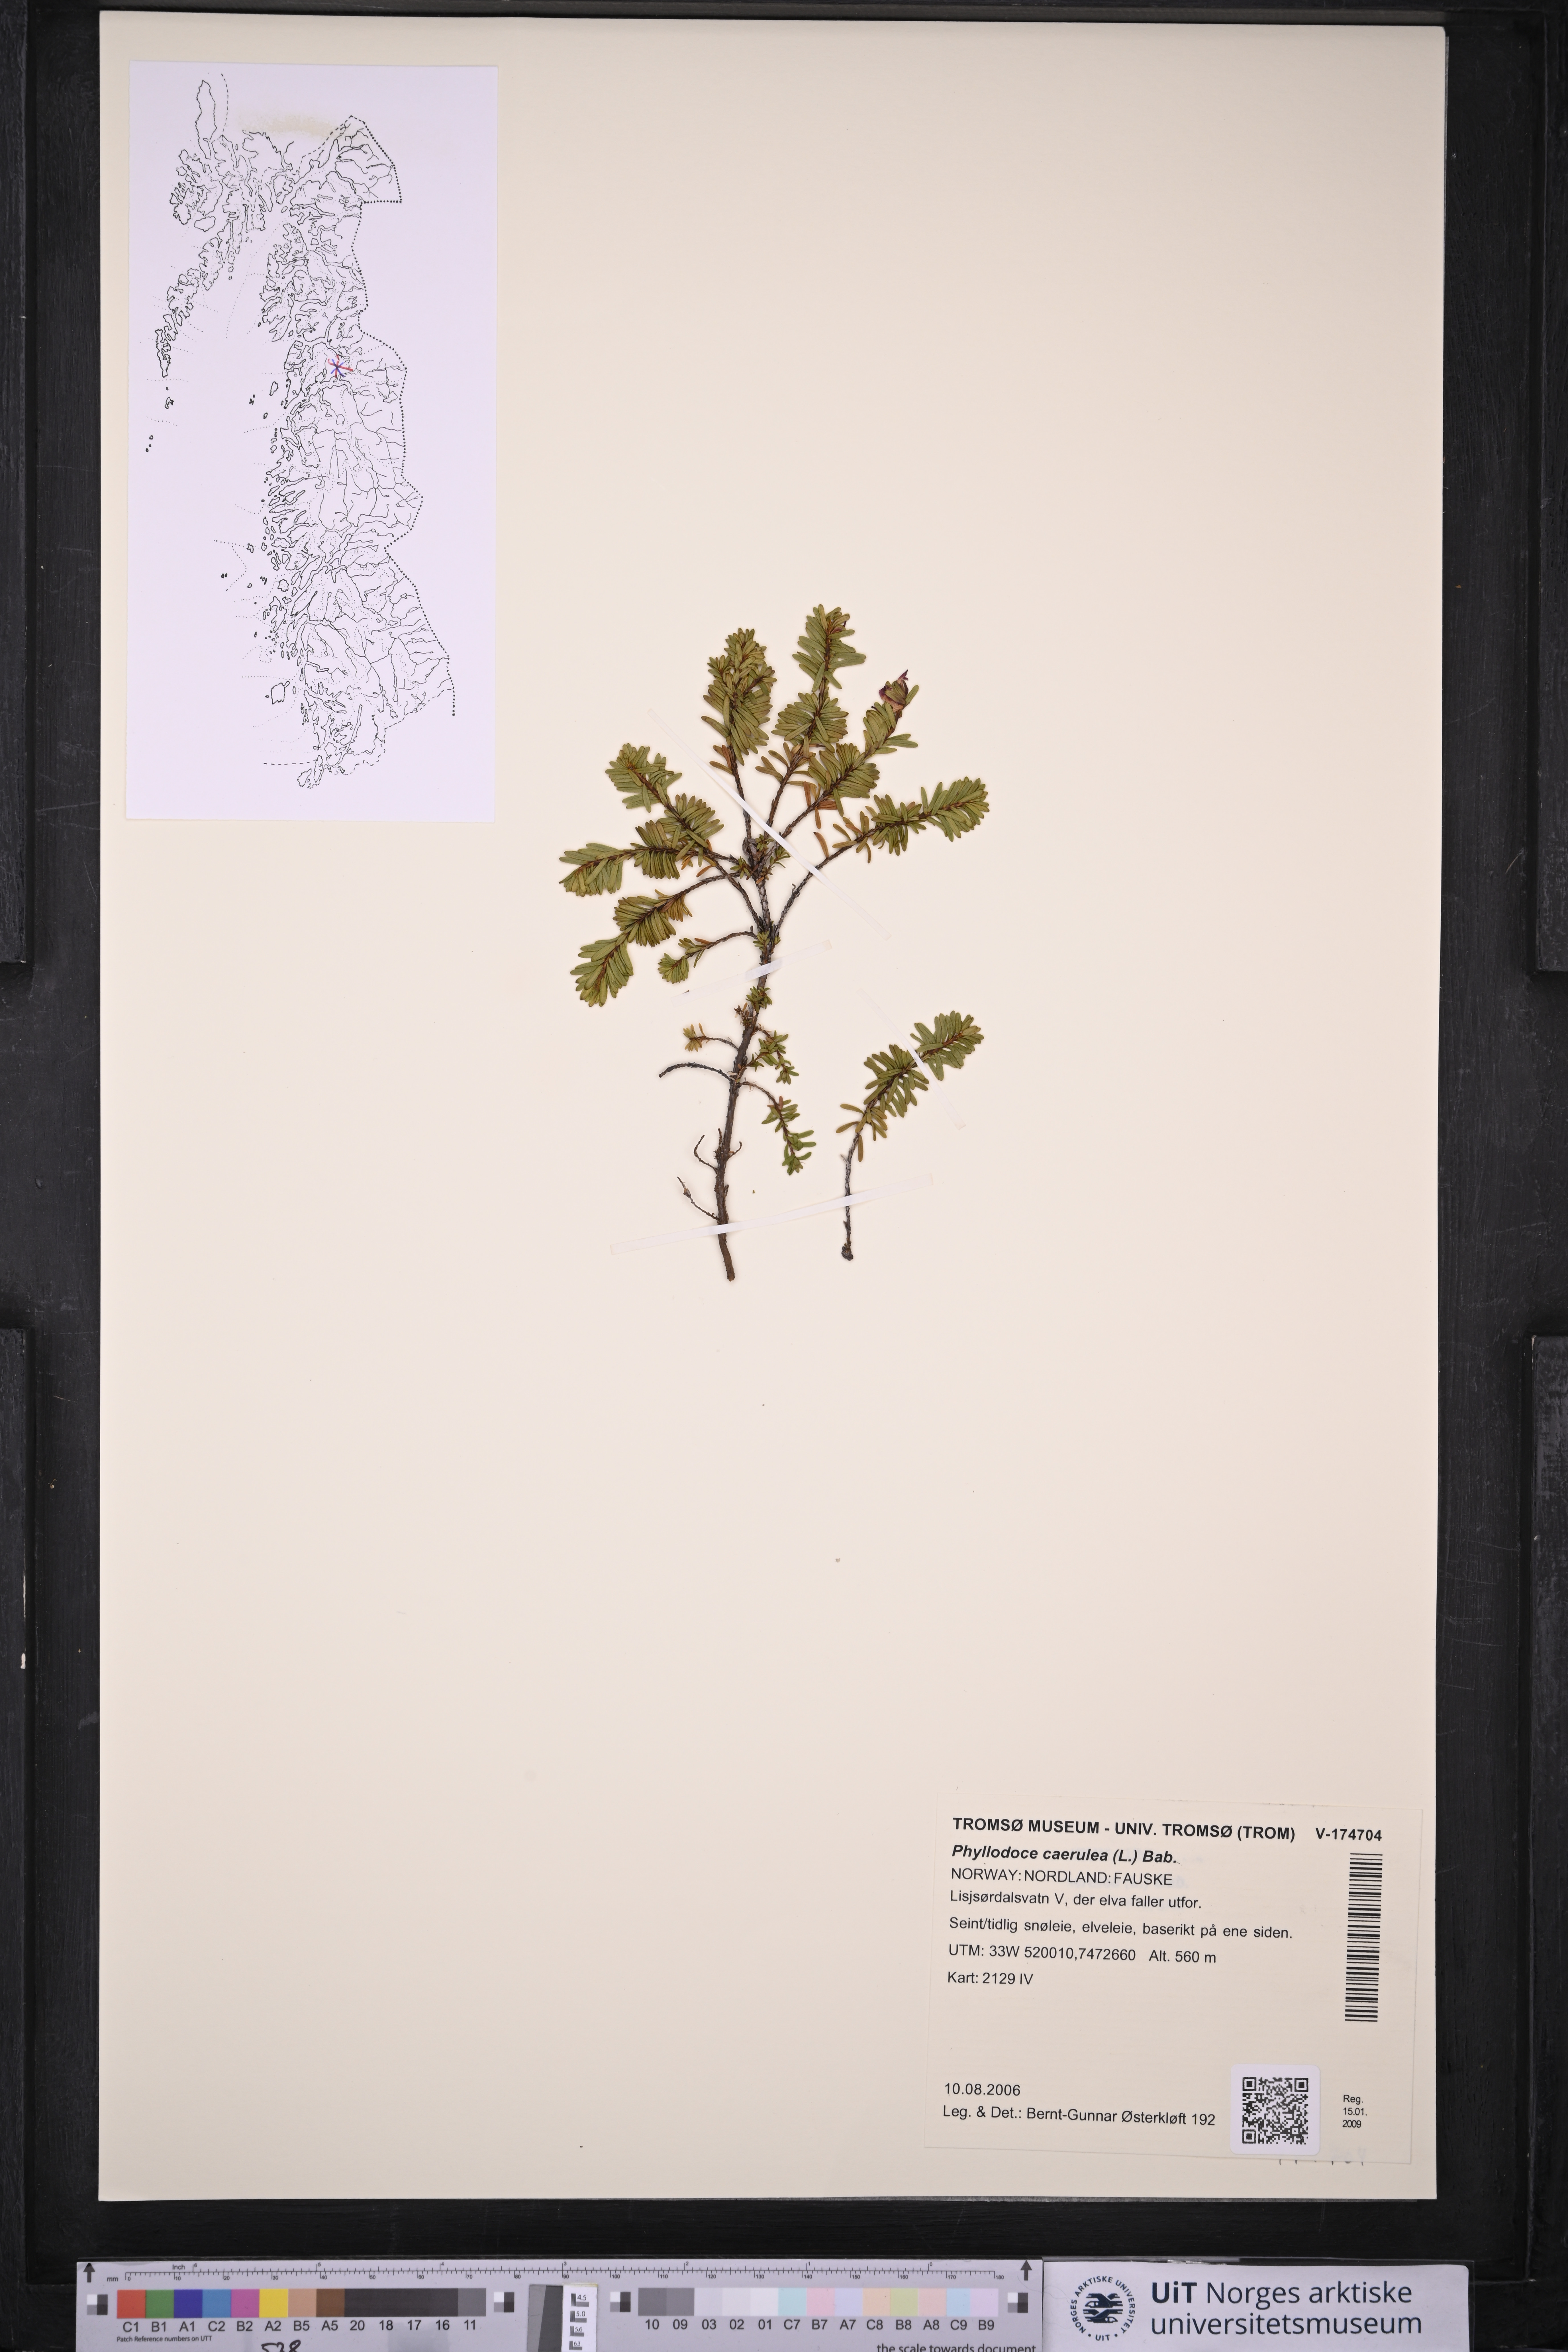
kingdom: Plantae
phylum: Tracheophyta
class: Magnoliopsida
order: Ericales
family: Ericaceae
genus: Phyllodoce
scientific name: Phyllodoce caerulea
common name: Blue heath
